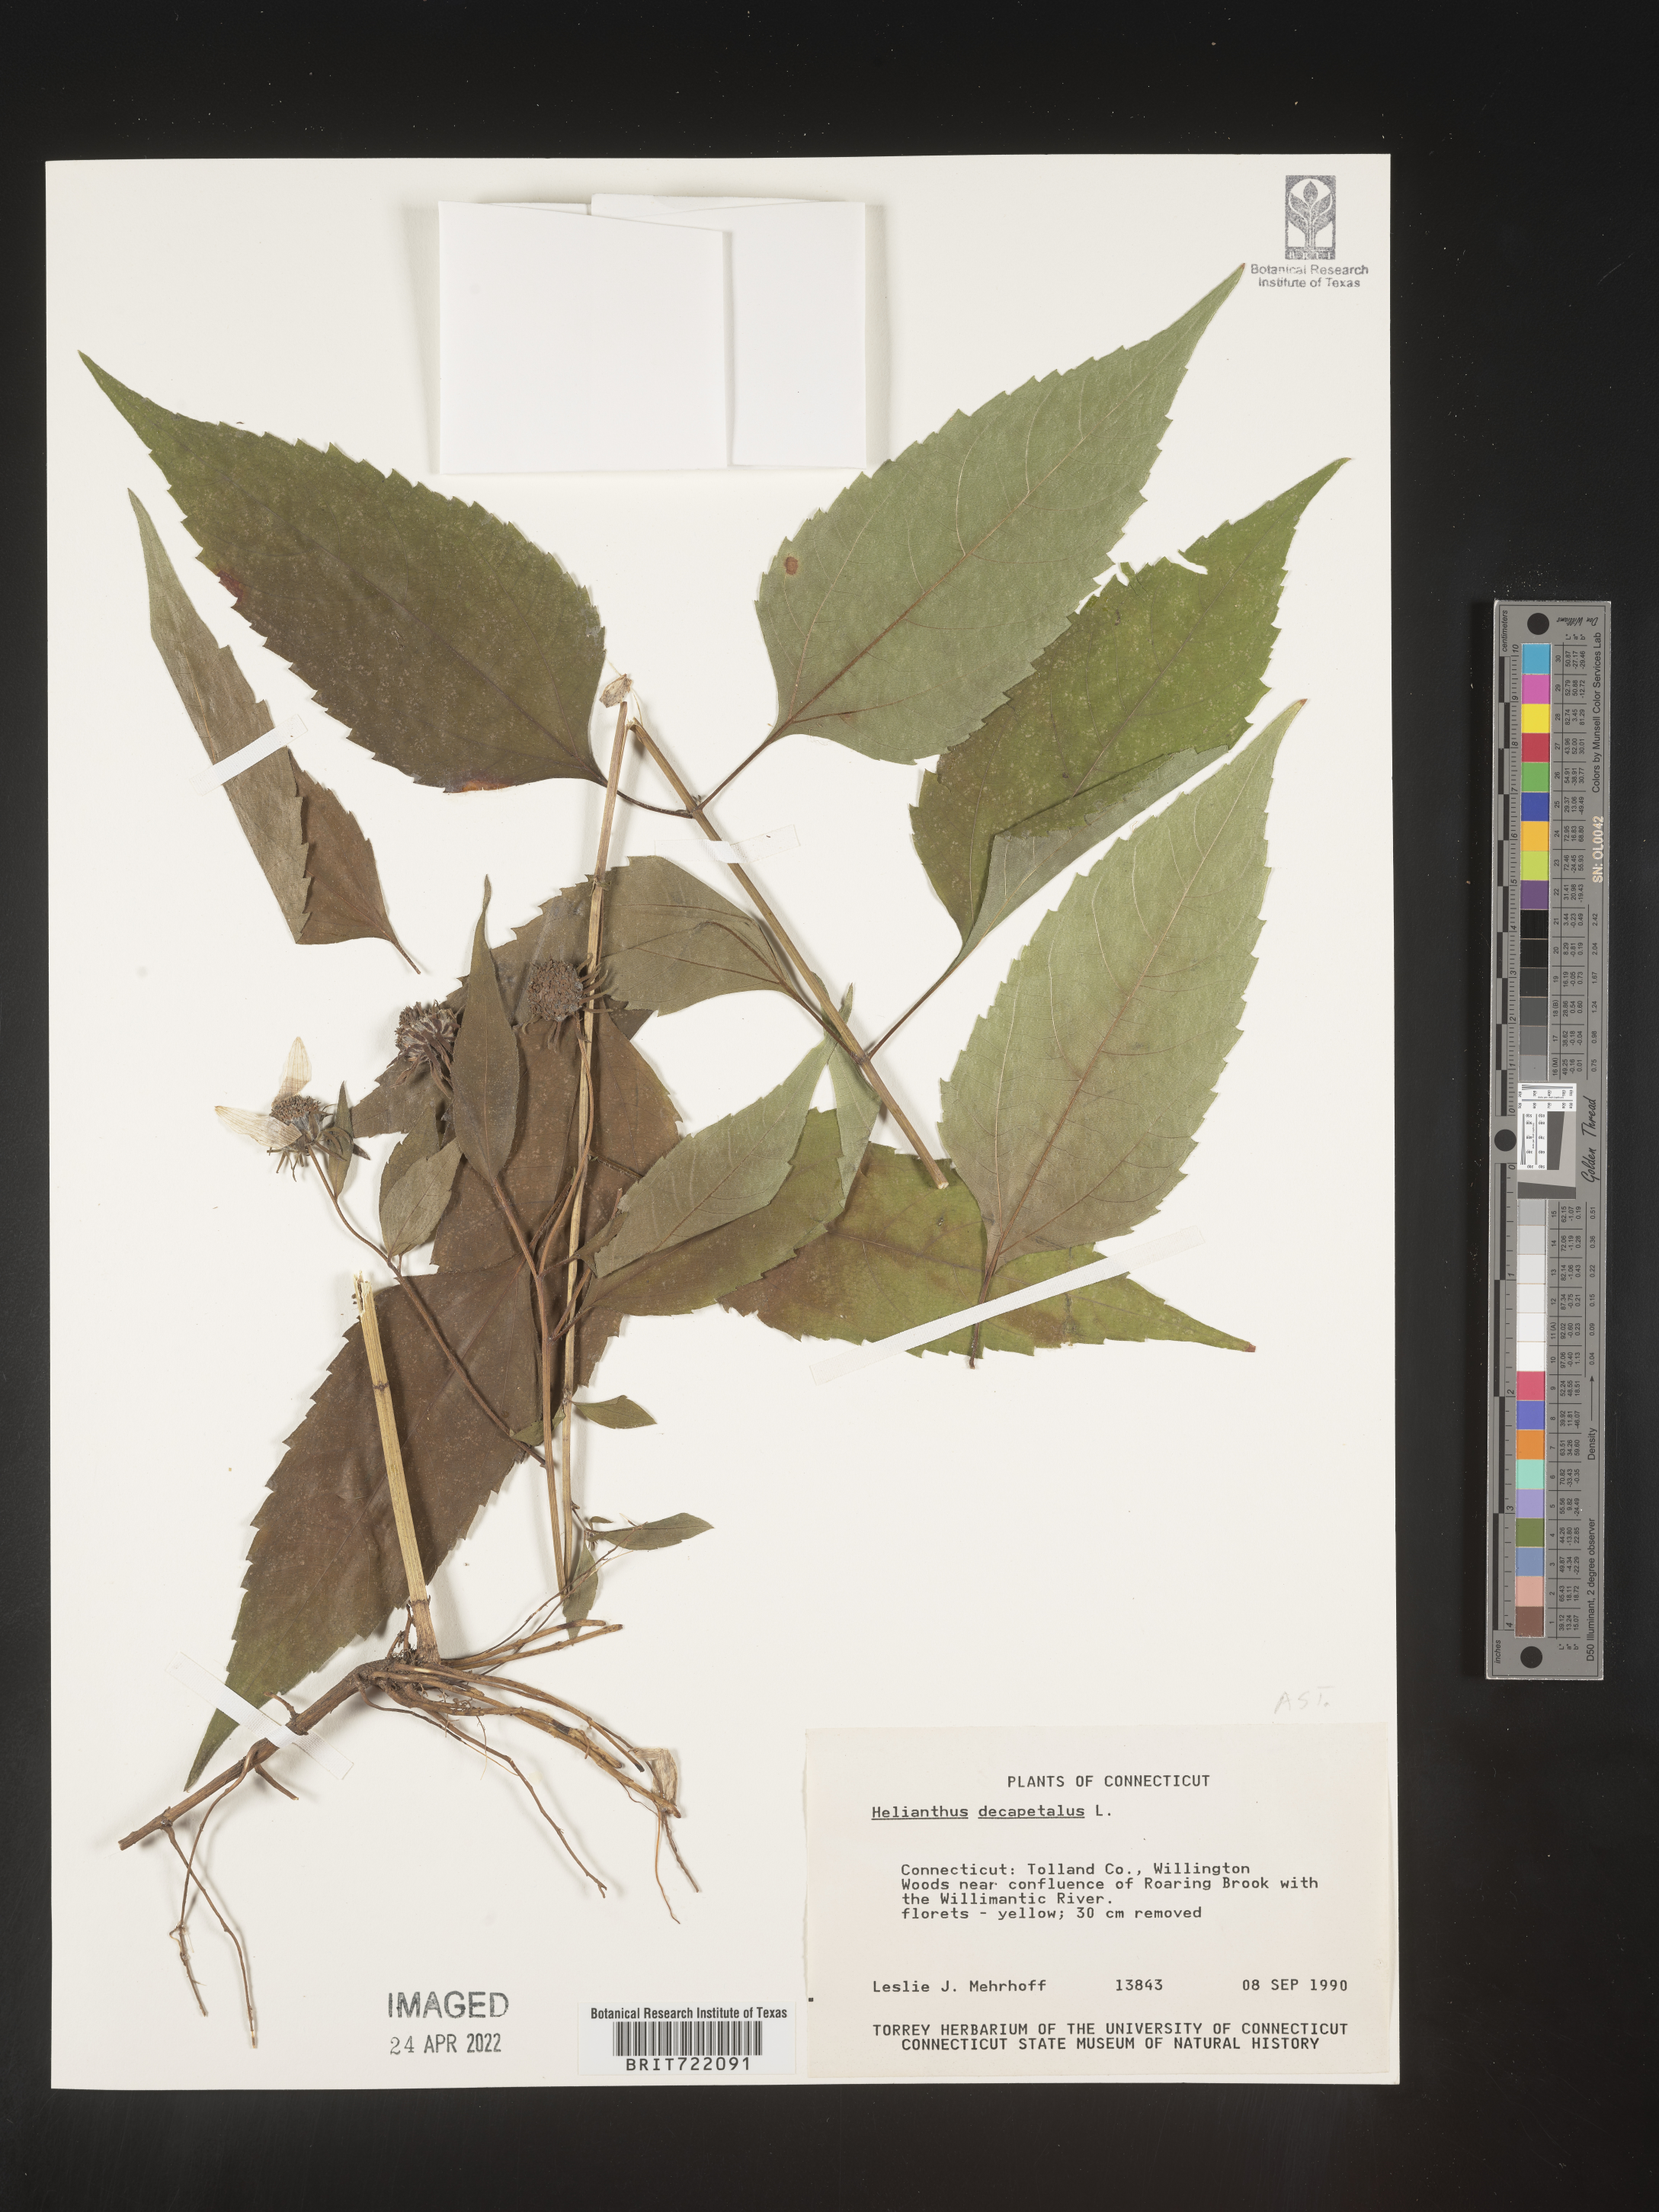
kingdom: Plantae
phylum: Tracheophyta
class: Magnoliopsida
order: Asterales
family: Asteraceae
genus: Helianthus
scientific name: Helianthus decapetalus
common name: Thin-leaved sunflower
